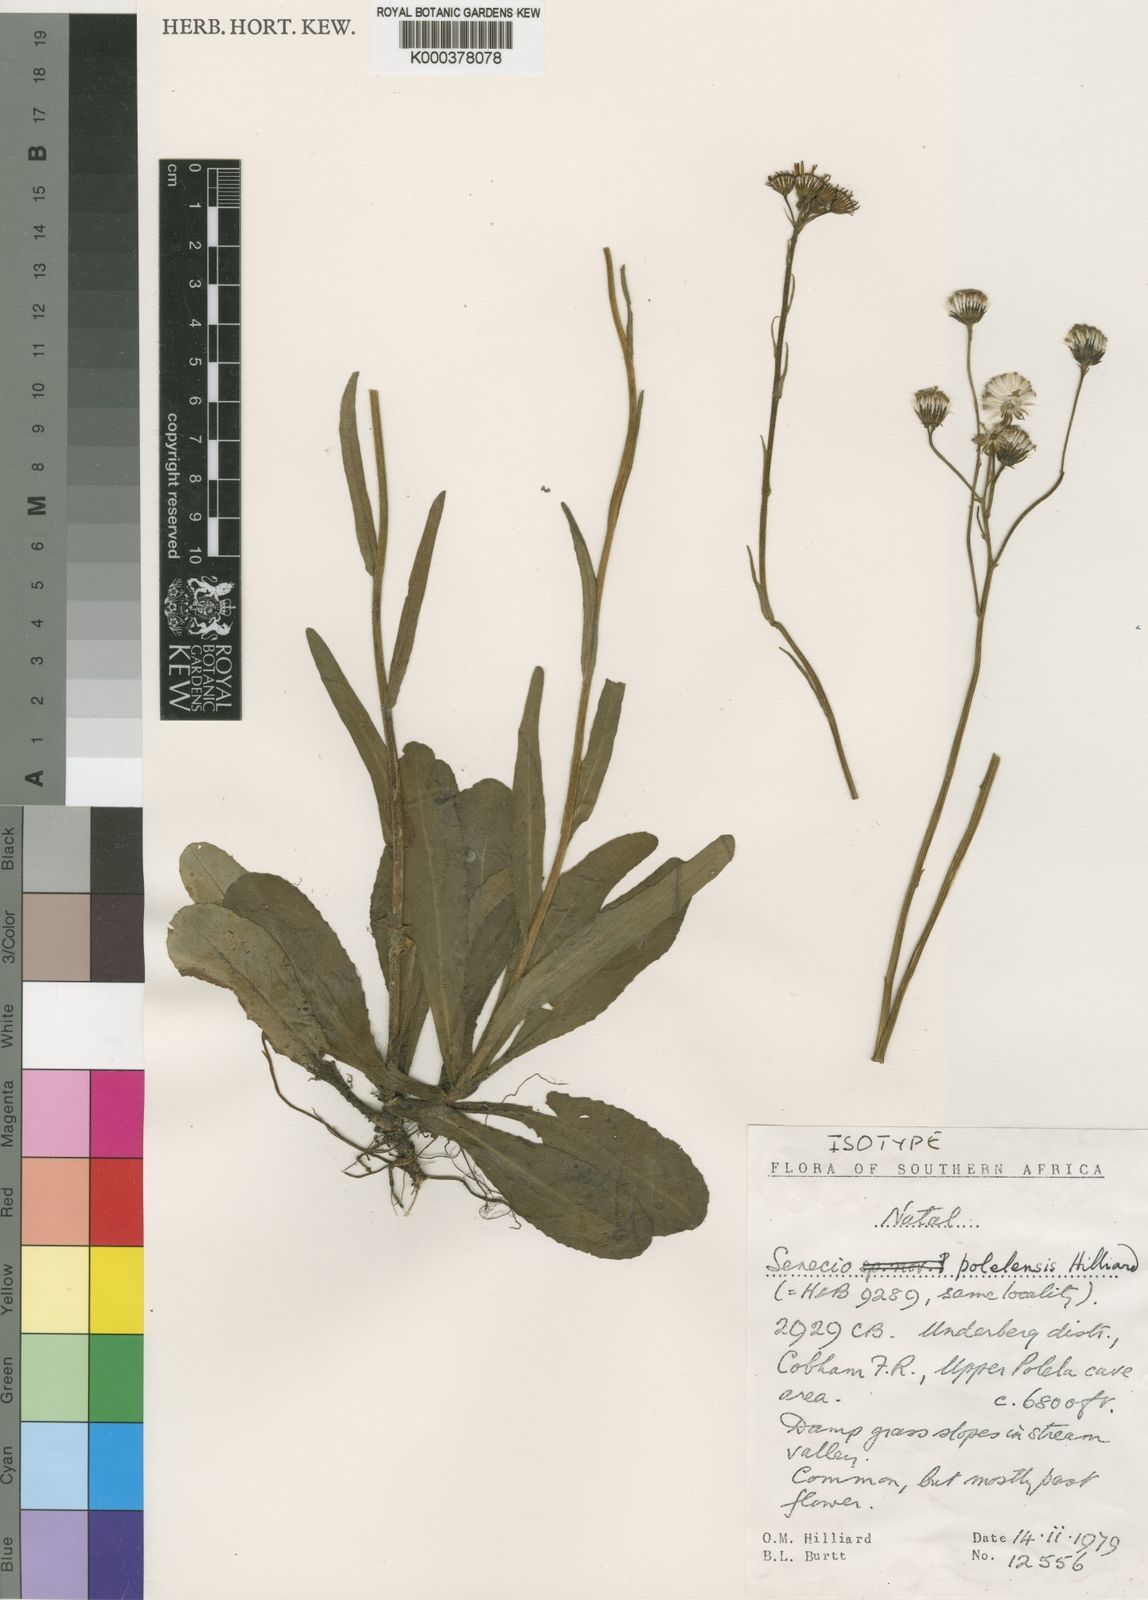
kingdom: Plantae
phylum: Tracheophyta
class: Magnoliopsida
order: Asterales
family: Asteraceae
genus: Senecio
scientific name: Senecio polelensis
